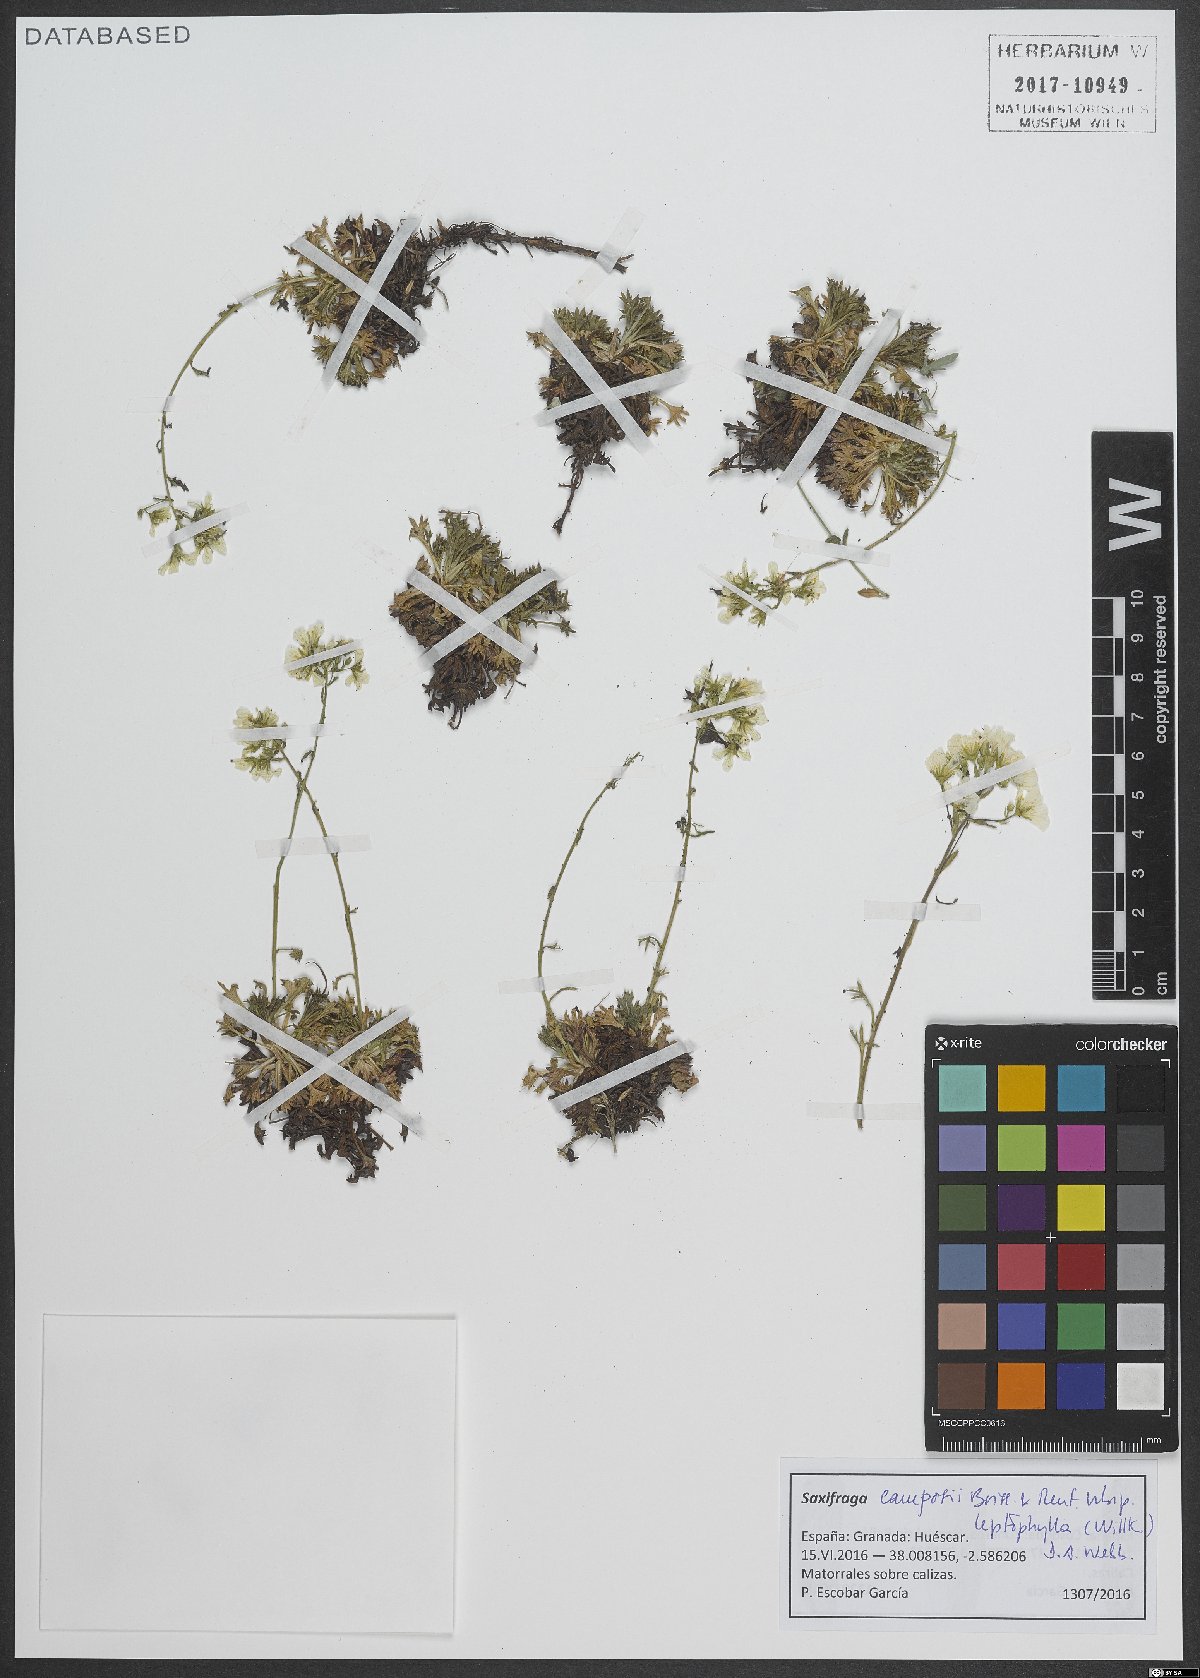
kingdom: Plantae
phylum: Tracheophyta
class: Magnoliopsida
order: Saxifragales
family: Saxifragaceae
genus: Saxifraga
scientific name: Saxifraga almeriensis
